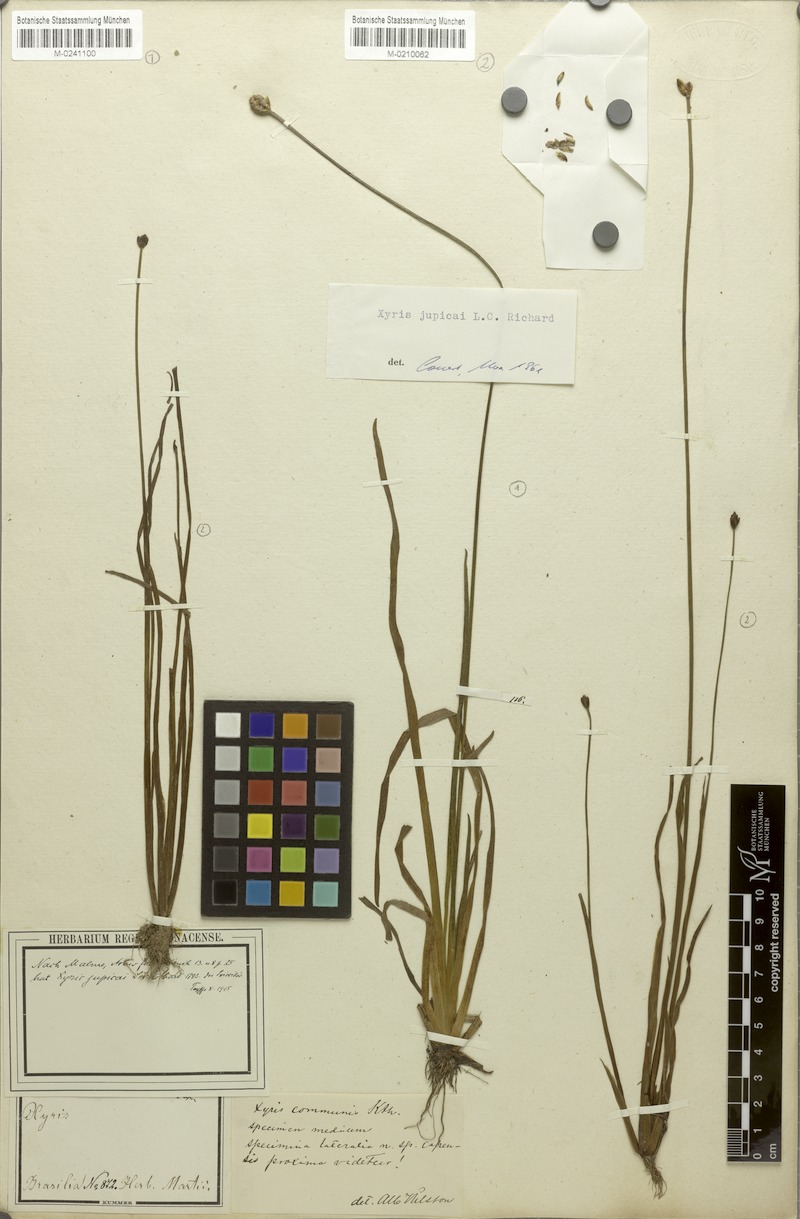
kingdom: Plantae
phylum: Tracheophyta
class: Liliopsida
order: Poales
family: Xyridaceae
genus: Xyris
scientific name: Xyris jupicai
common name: Richard's yelloweyed grass
